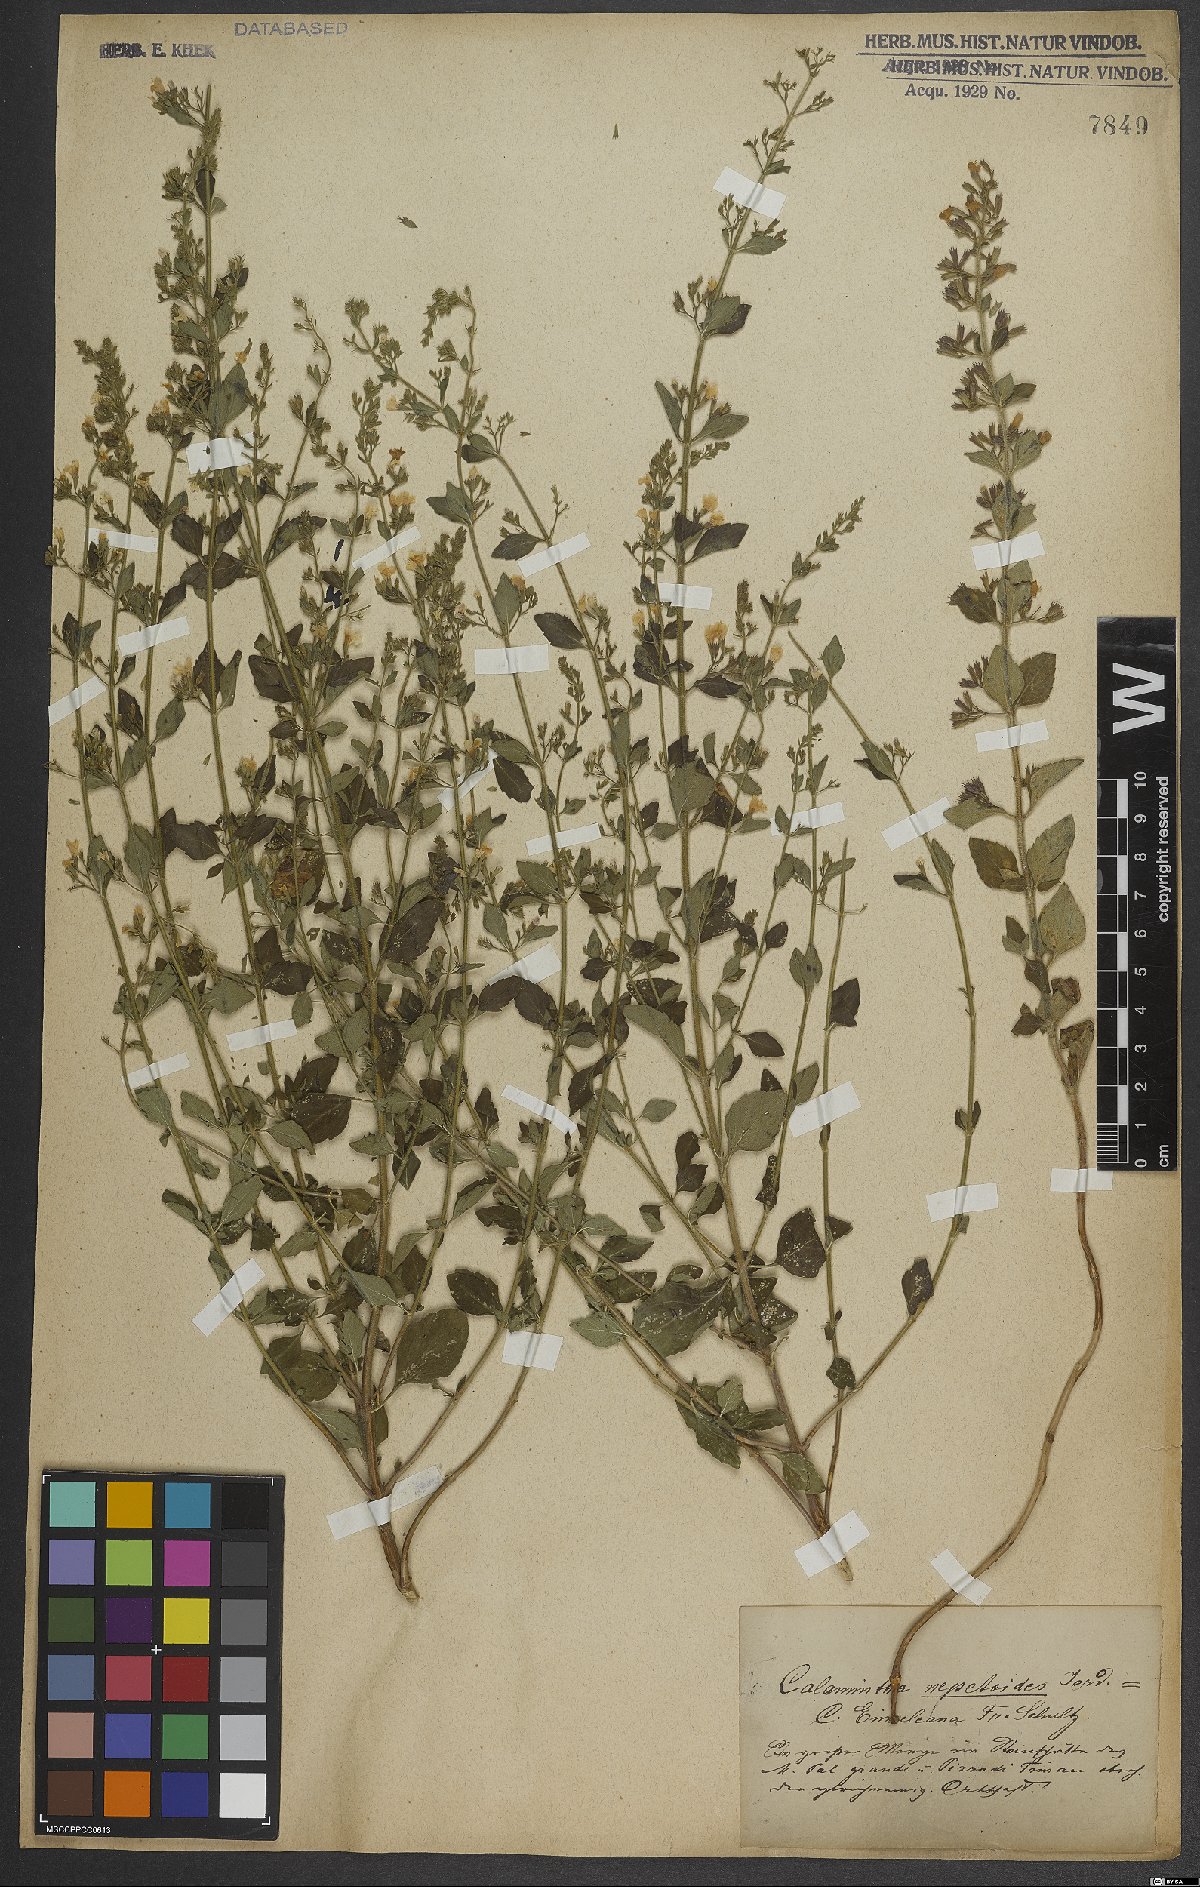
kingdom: Plantae
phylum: Tracheophyta
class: Magnoliopsida
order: Lamiales
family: Lamiaceae
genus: Clinopodium
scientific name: Clinopodium nepeta
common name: Lesser calamint
